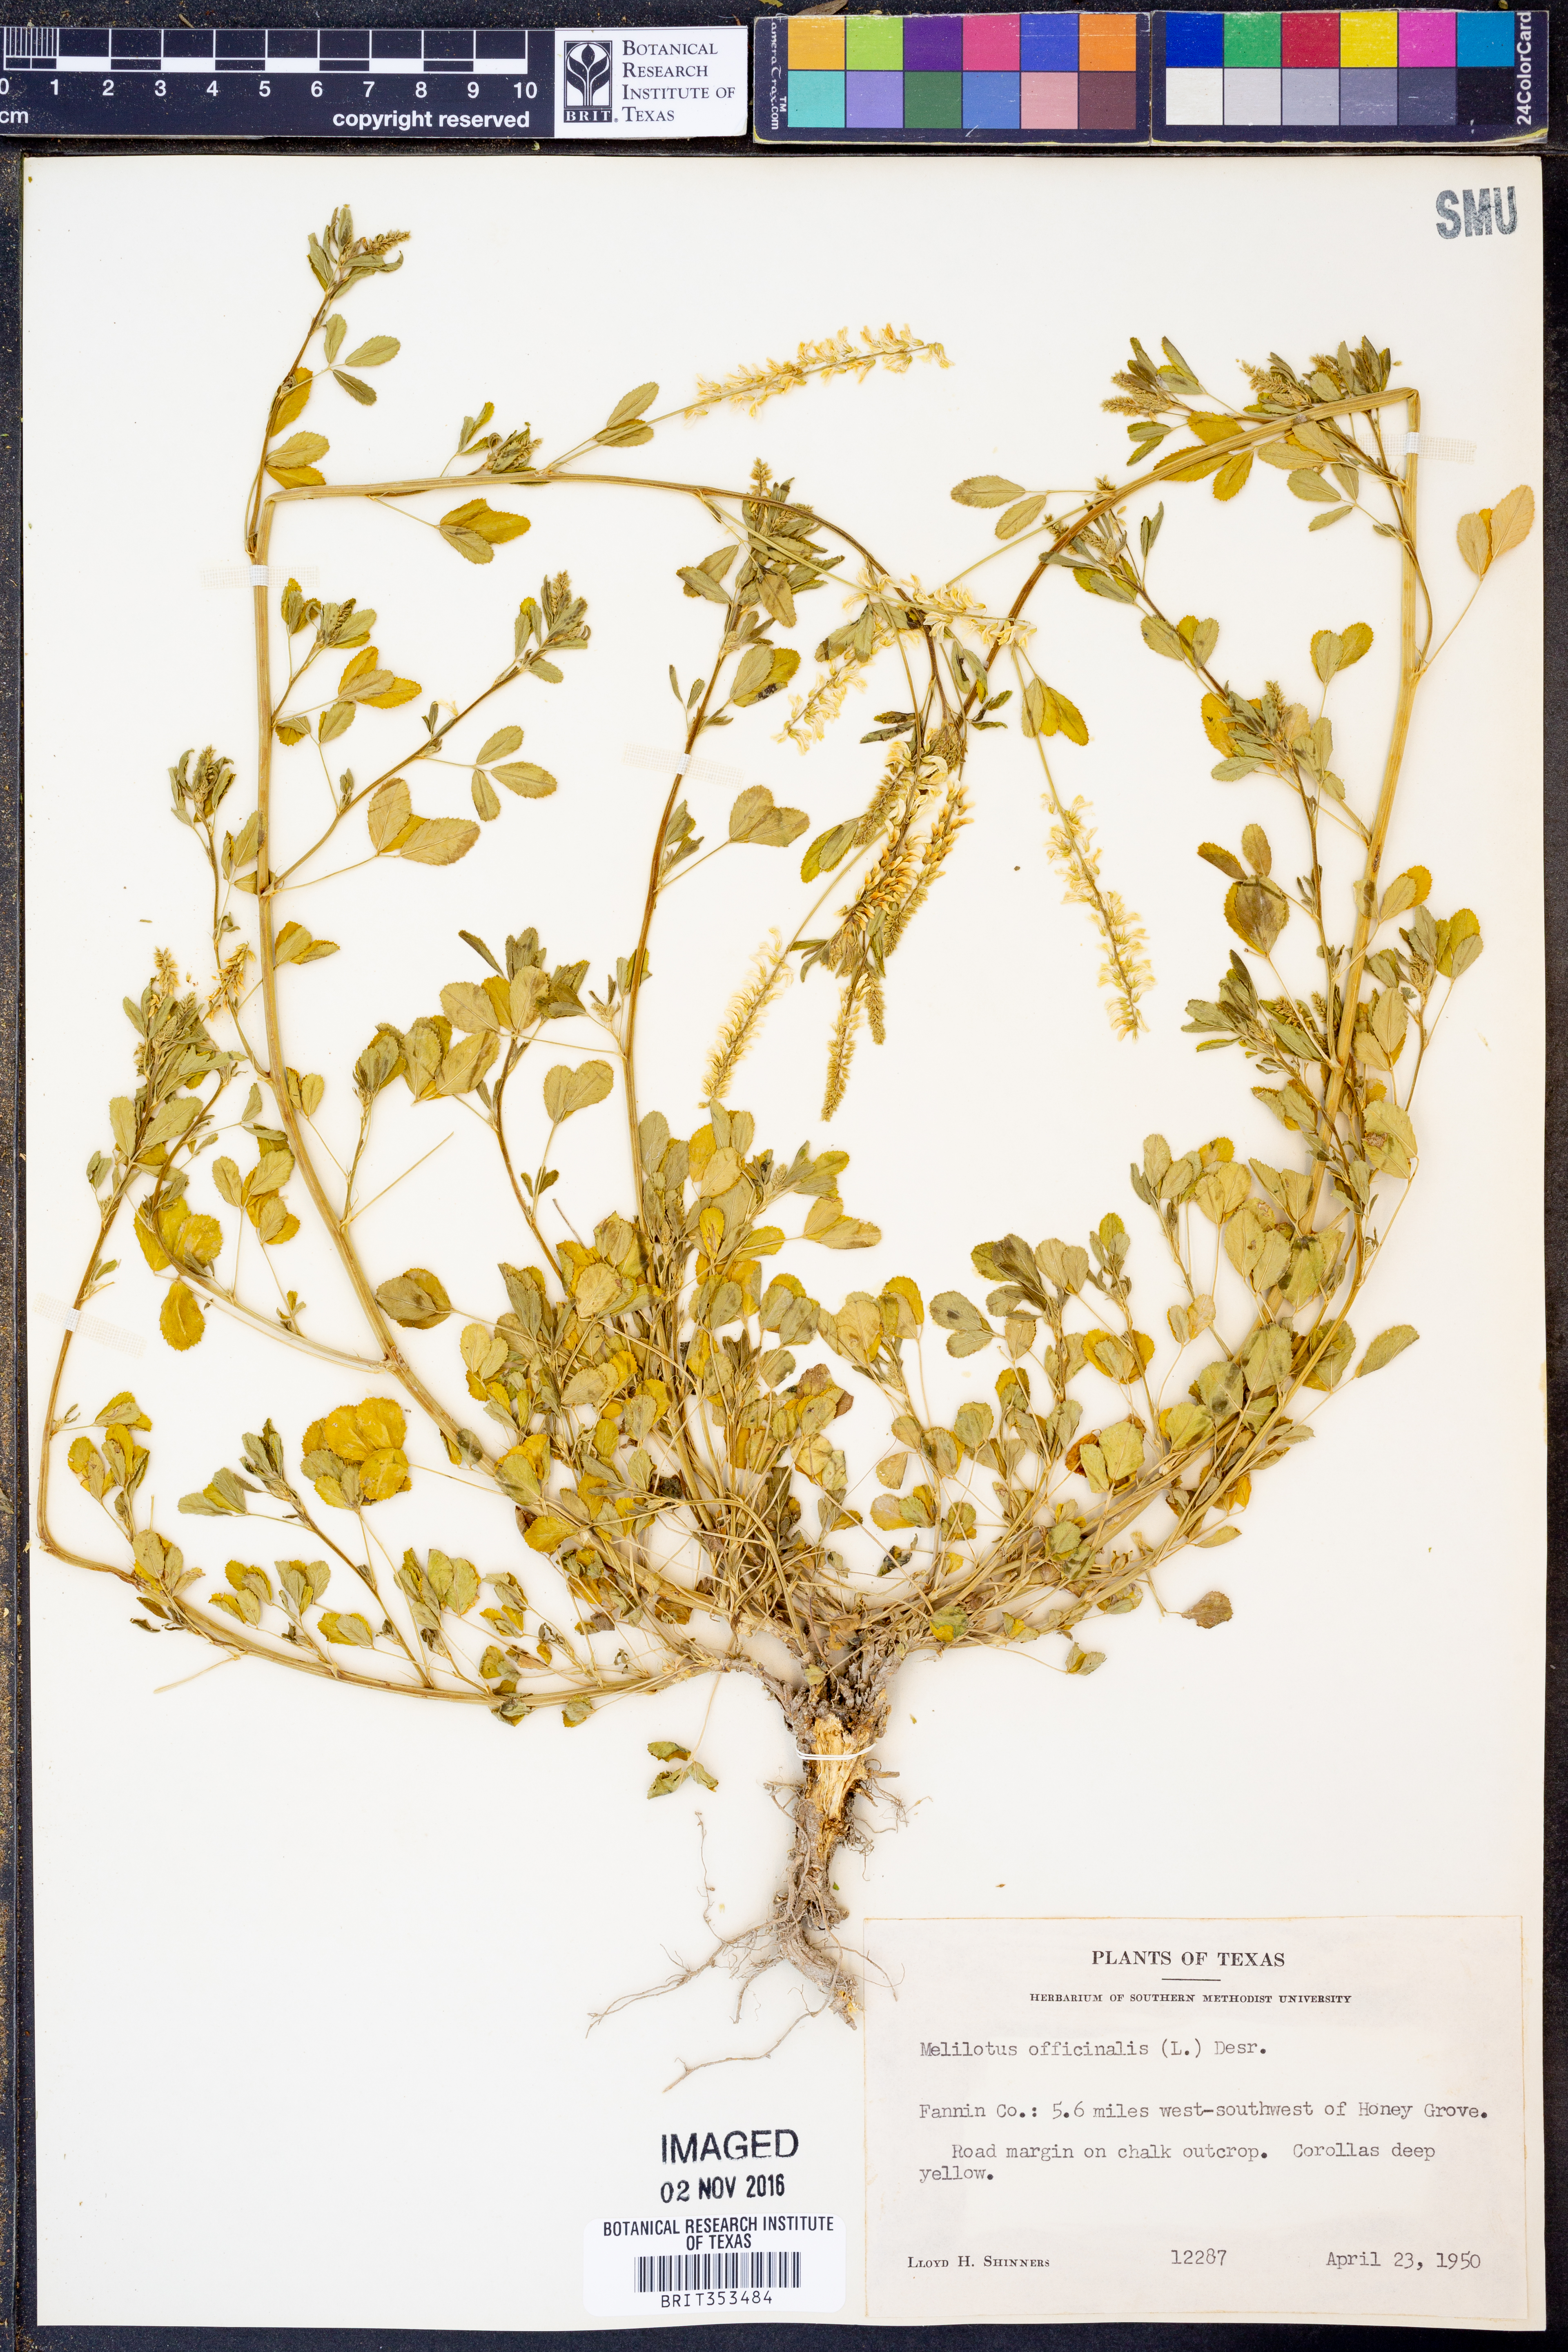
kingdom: Plantae
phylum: Tracheophyta
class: Magnoliopsida
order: Fabales
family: Fabaceae
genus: Melilotus
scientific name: Melilotus officinalis
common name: Sweetclover
